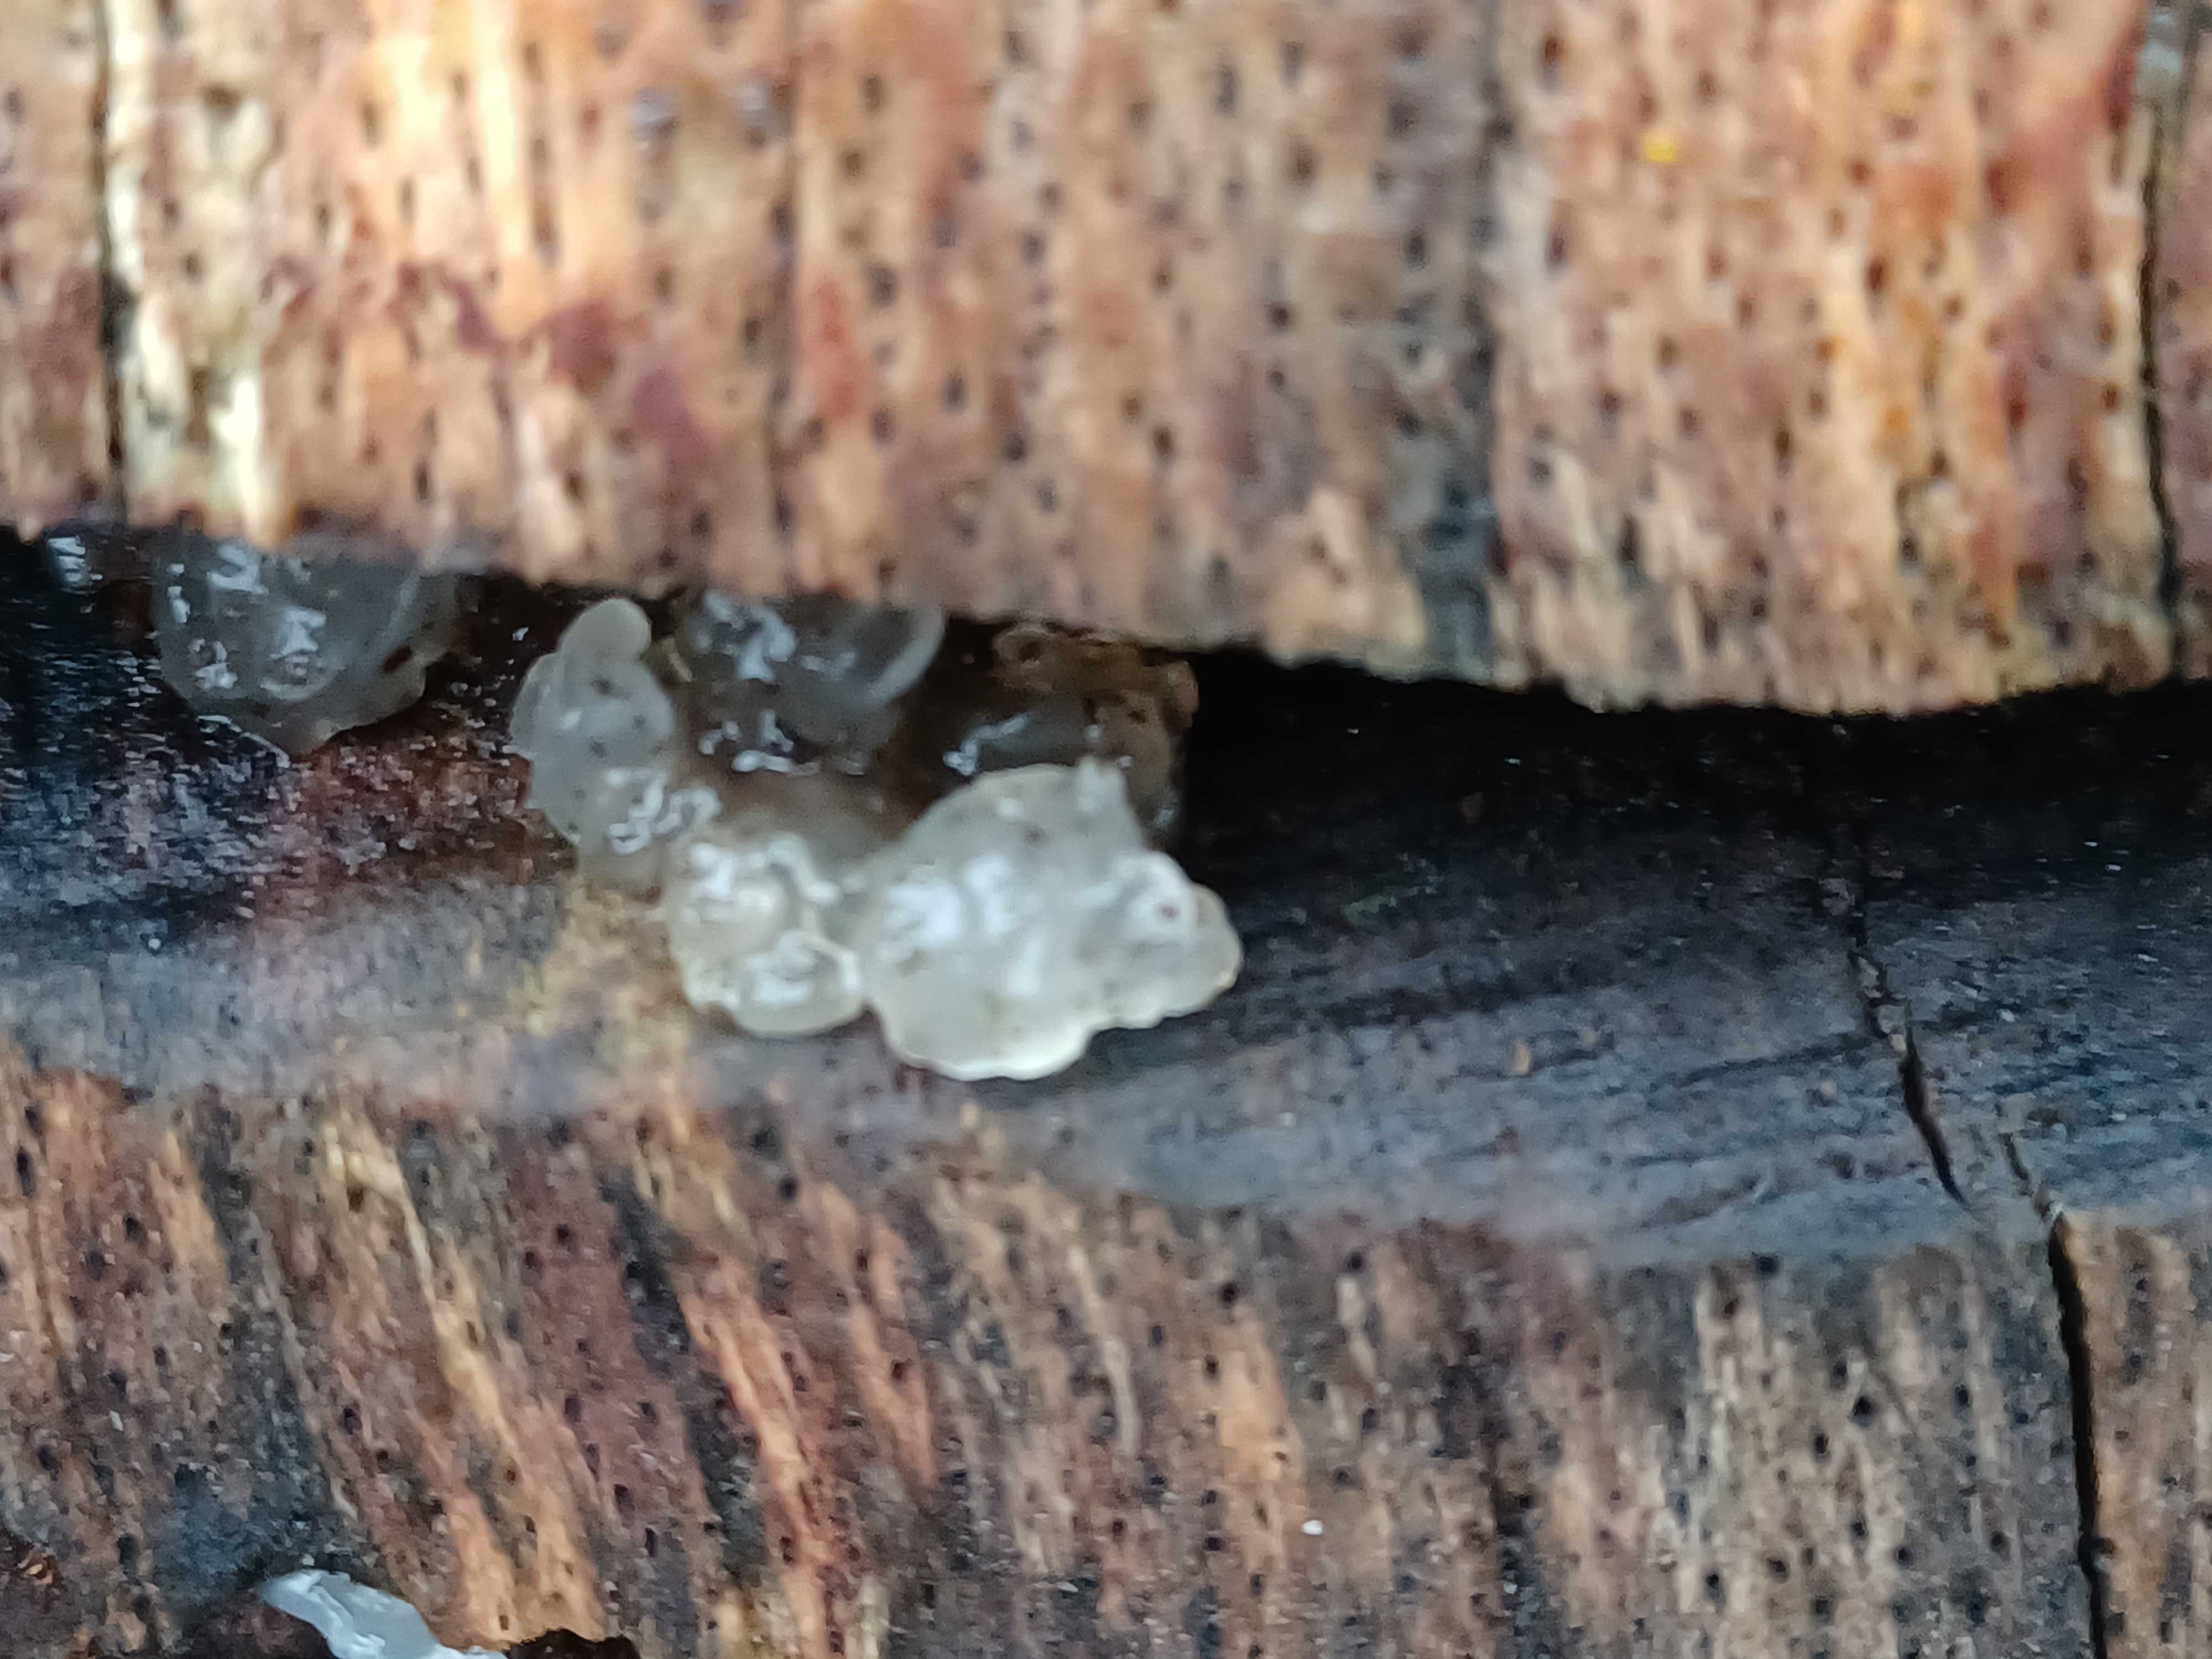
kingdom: Fungi
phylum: Basidiomycota
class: Agaricomycetes
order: Auriculariales
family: Hyaloriaceae
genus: Myxarium
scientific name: Myxarium nucleatum
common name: klar bævretop
